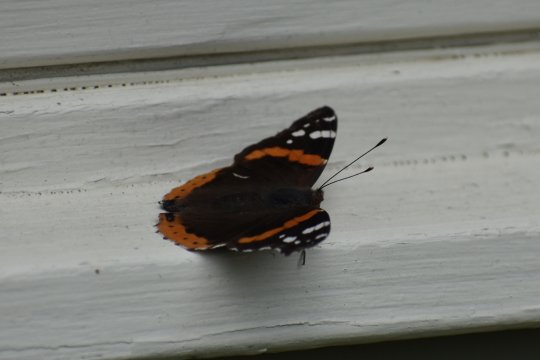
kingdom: Animalia
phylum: Arthropoda
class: Insecta
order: Lepidoptera
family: Nymphalidae
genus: Vanessa
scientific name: Vanessa atalanta
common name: Red Admiral
